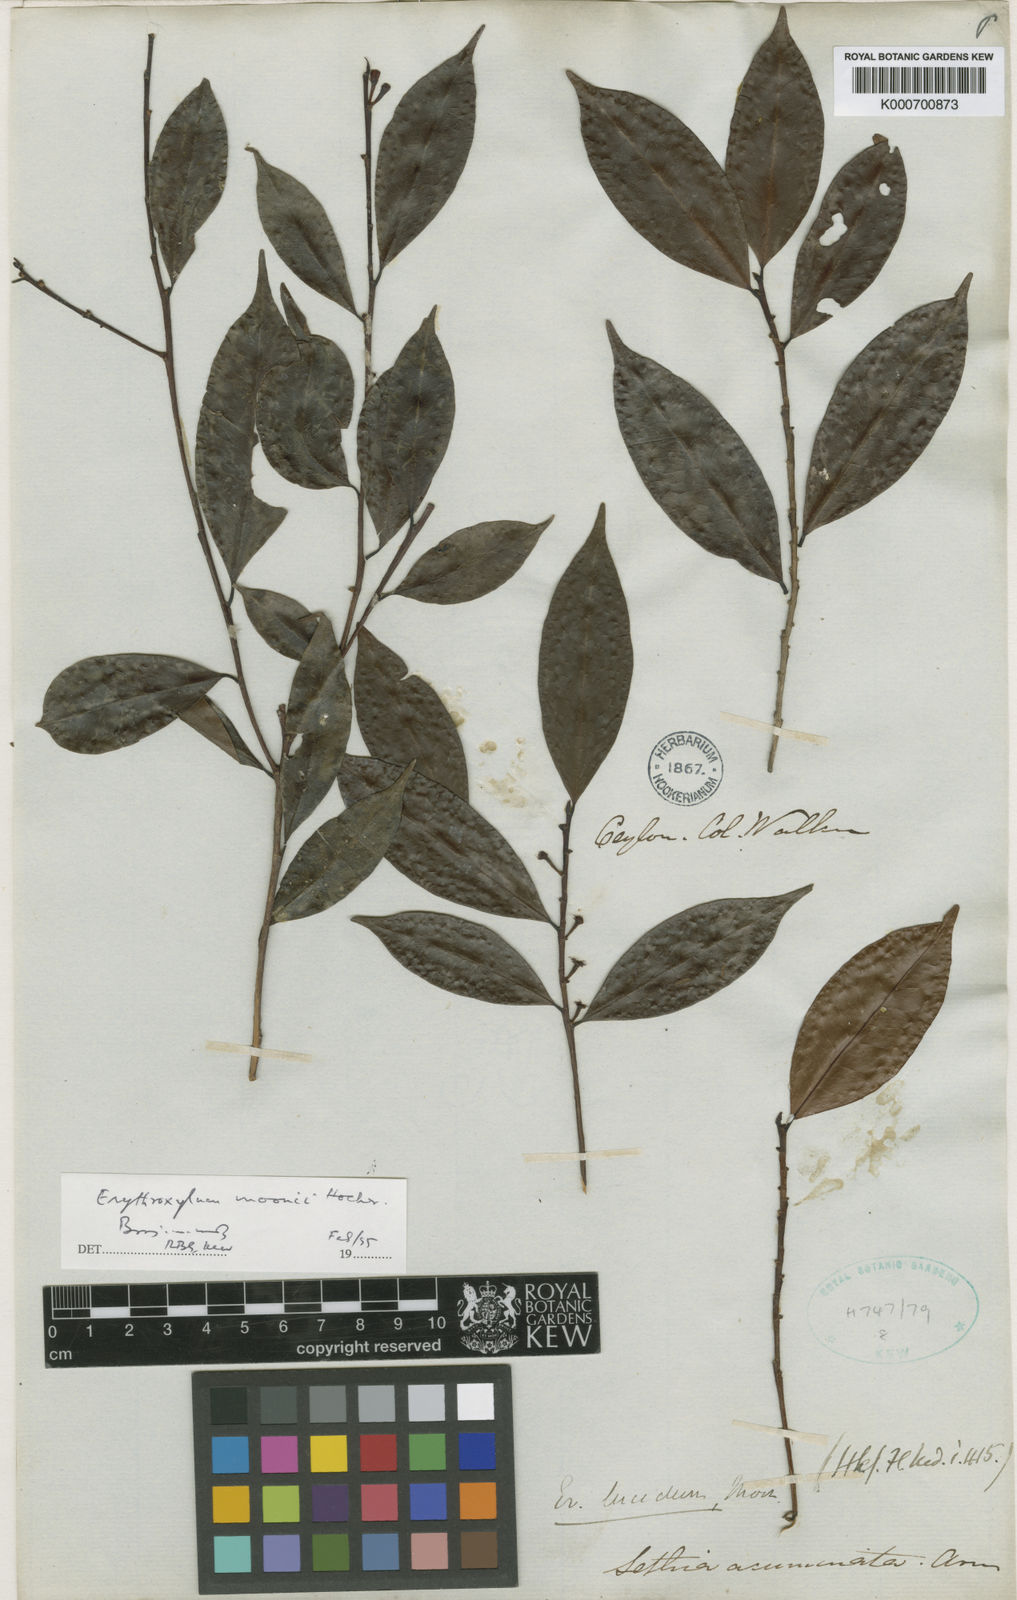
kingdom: Plantae
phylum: Tracheophyta
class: Magnoliopsida
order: Malpighiales
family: Erythroxylaceae
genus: Erythroxylum
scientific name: Erythroxylum
